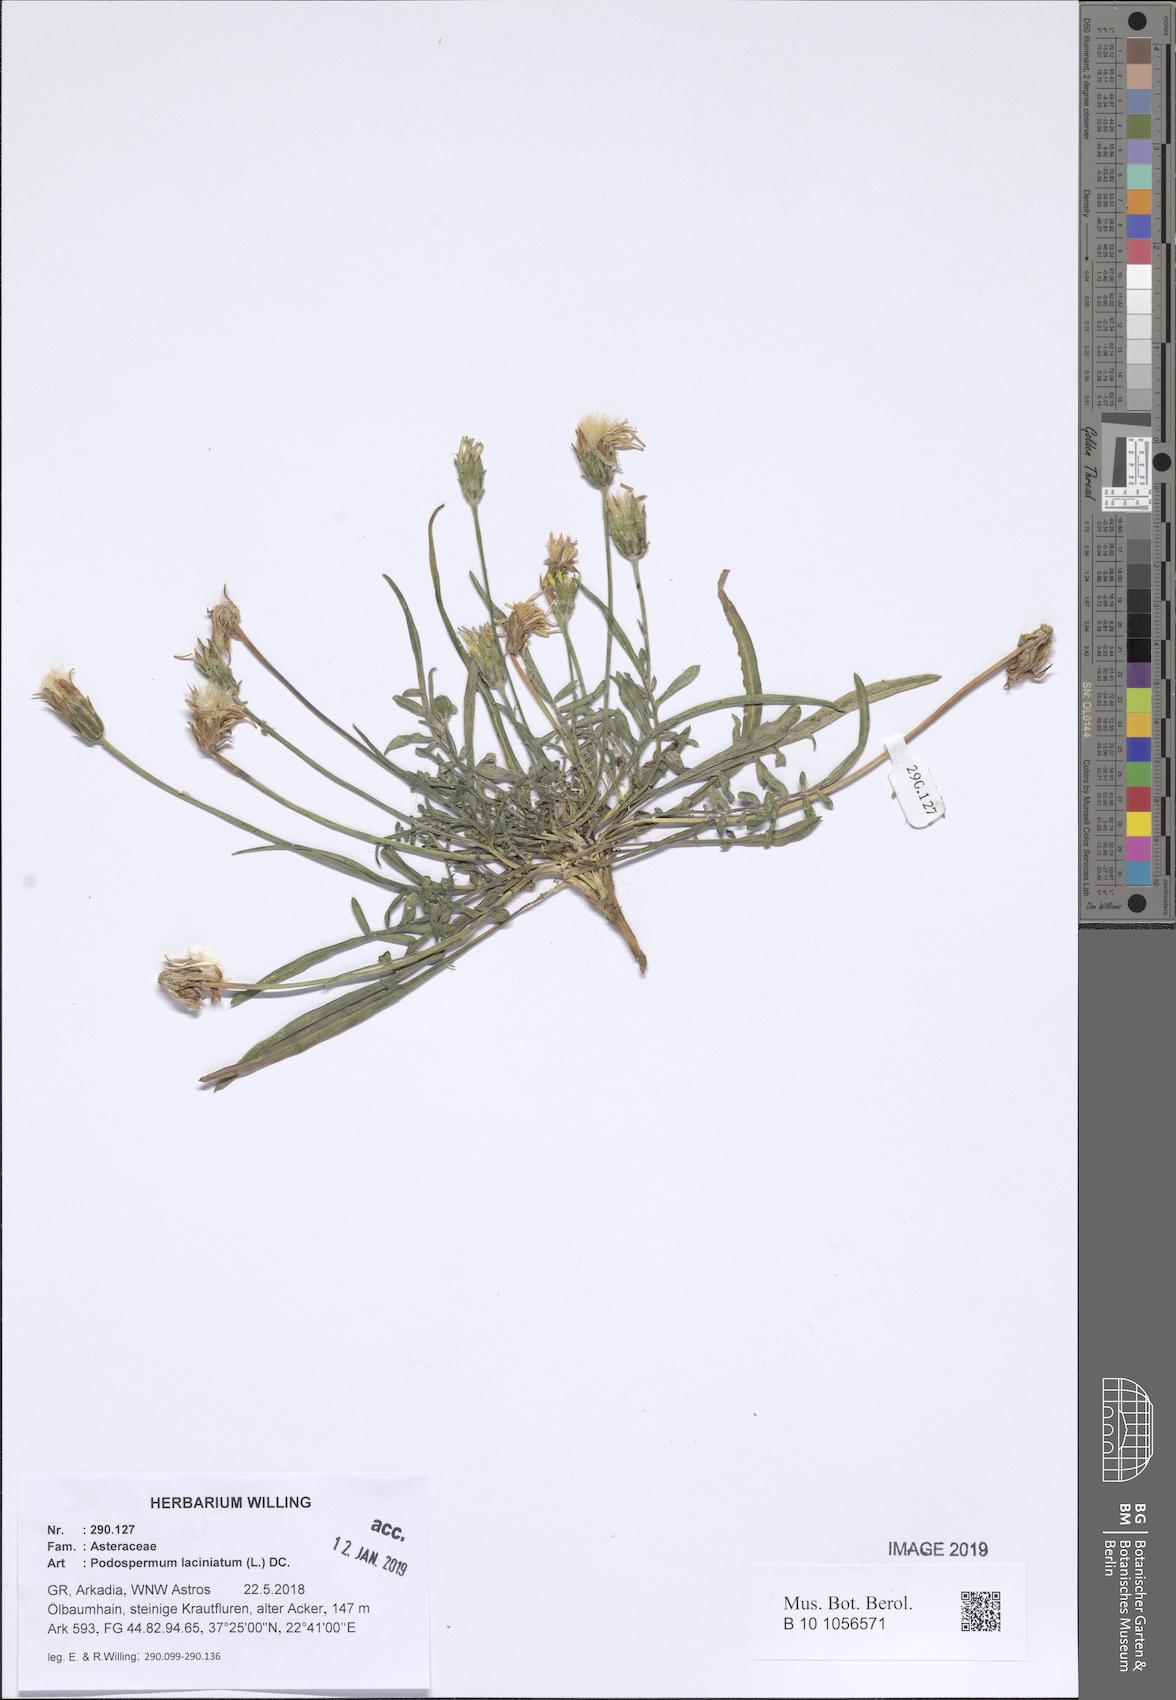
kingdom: Plantae
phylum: Tracheophyta
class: Magnoliopsida
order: Asterales
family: Asteraceae
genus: Scorzonera
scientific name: Scorzonera laciniata
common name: Cutleaf vipergrass
